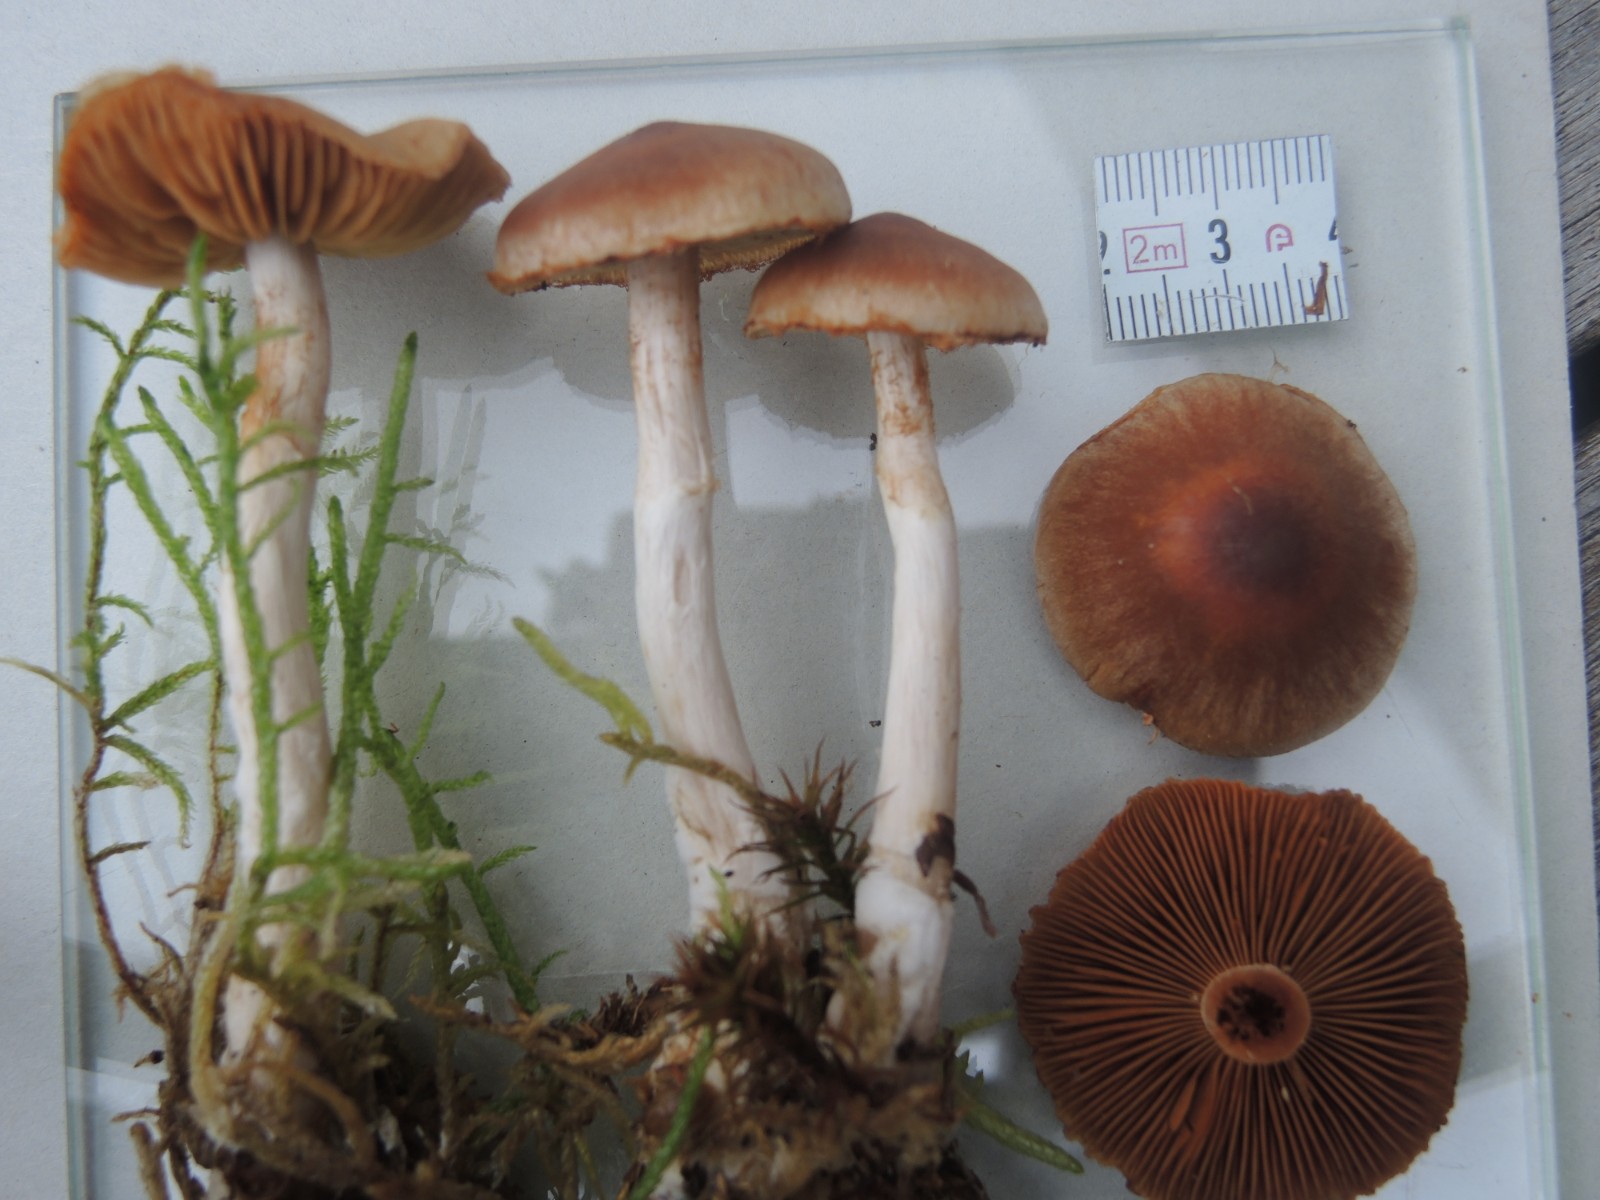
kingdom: Fungi
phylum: Basidiomycota
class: Agaricomycetes
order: Agaricales
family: Cortinariaceae
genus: Cortinarius
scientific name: Cortinarius
